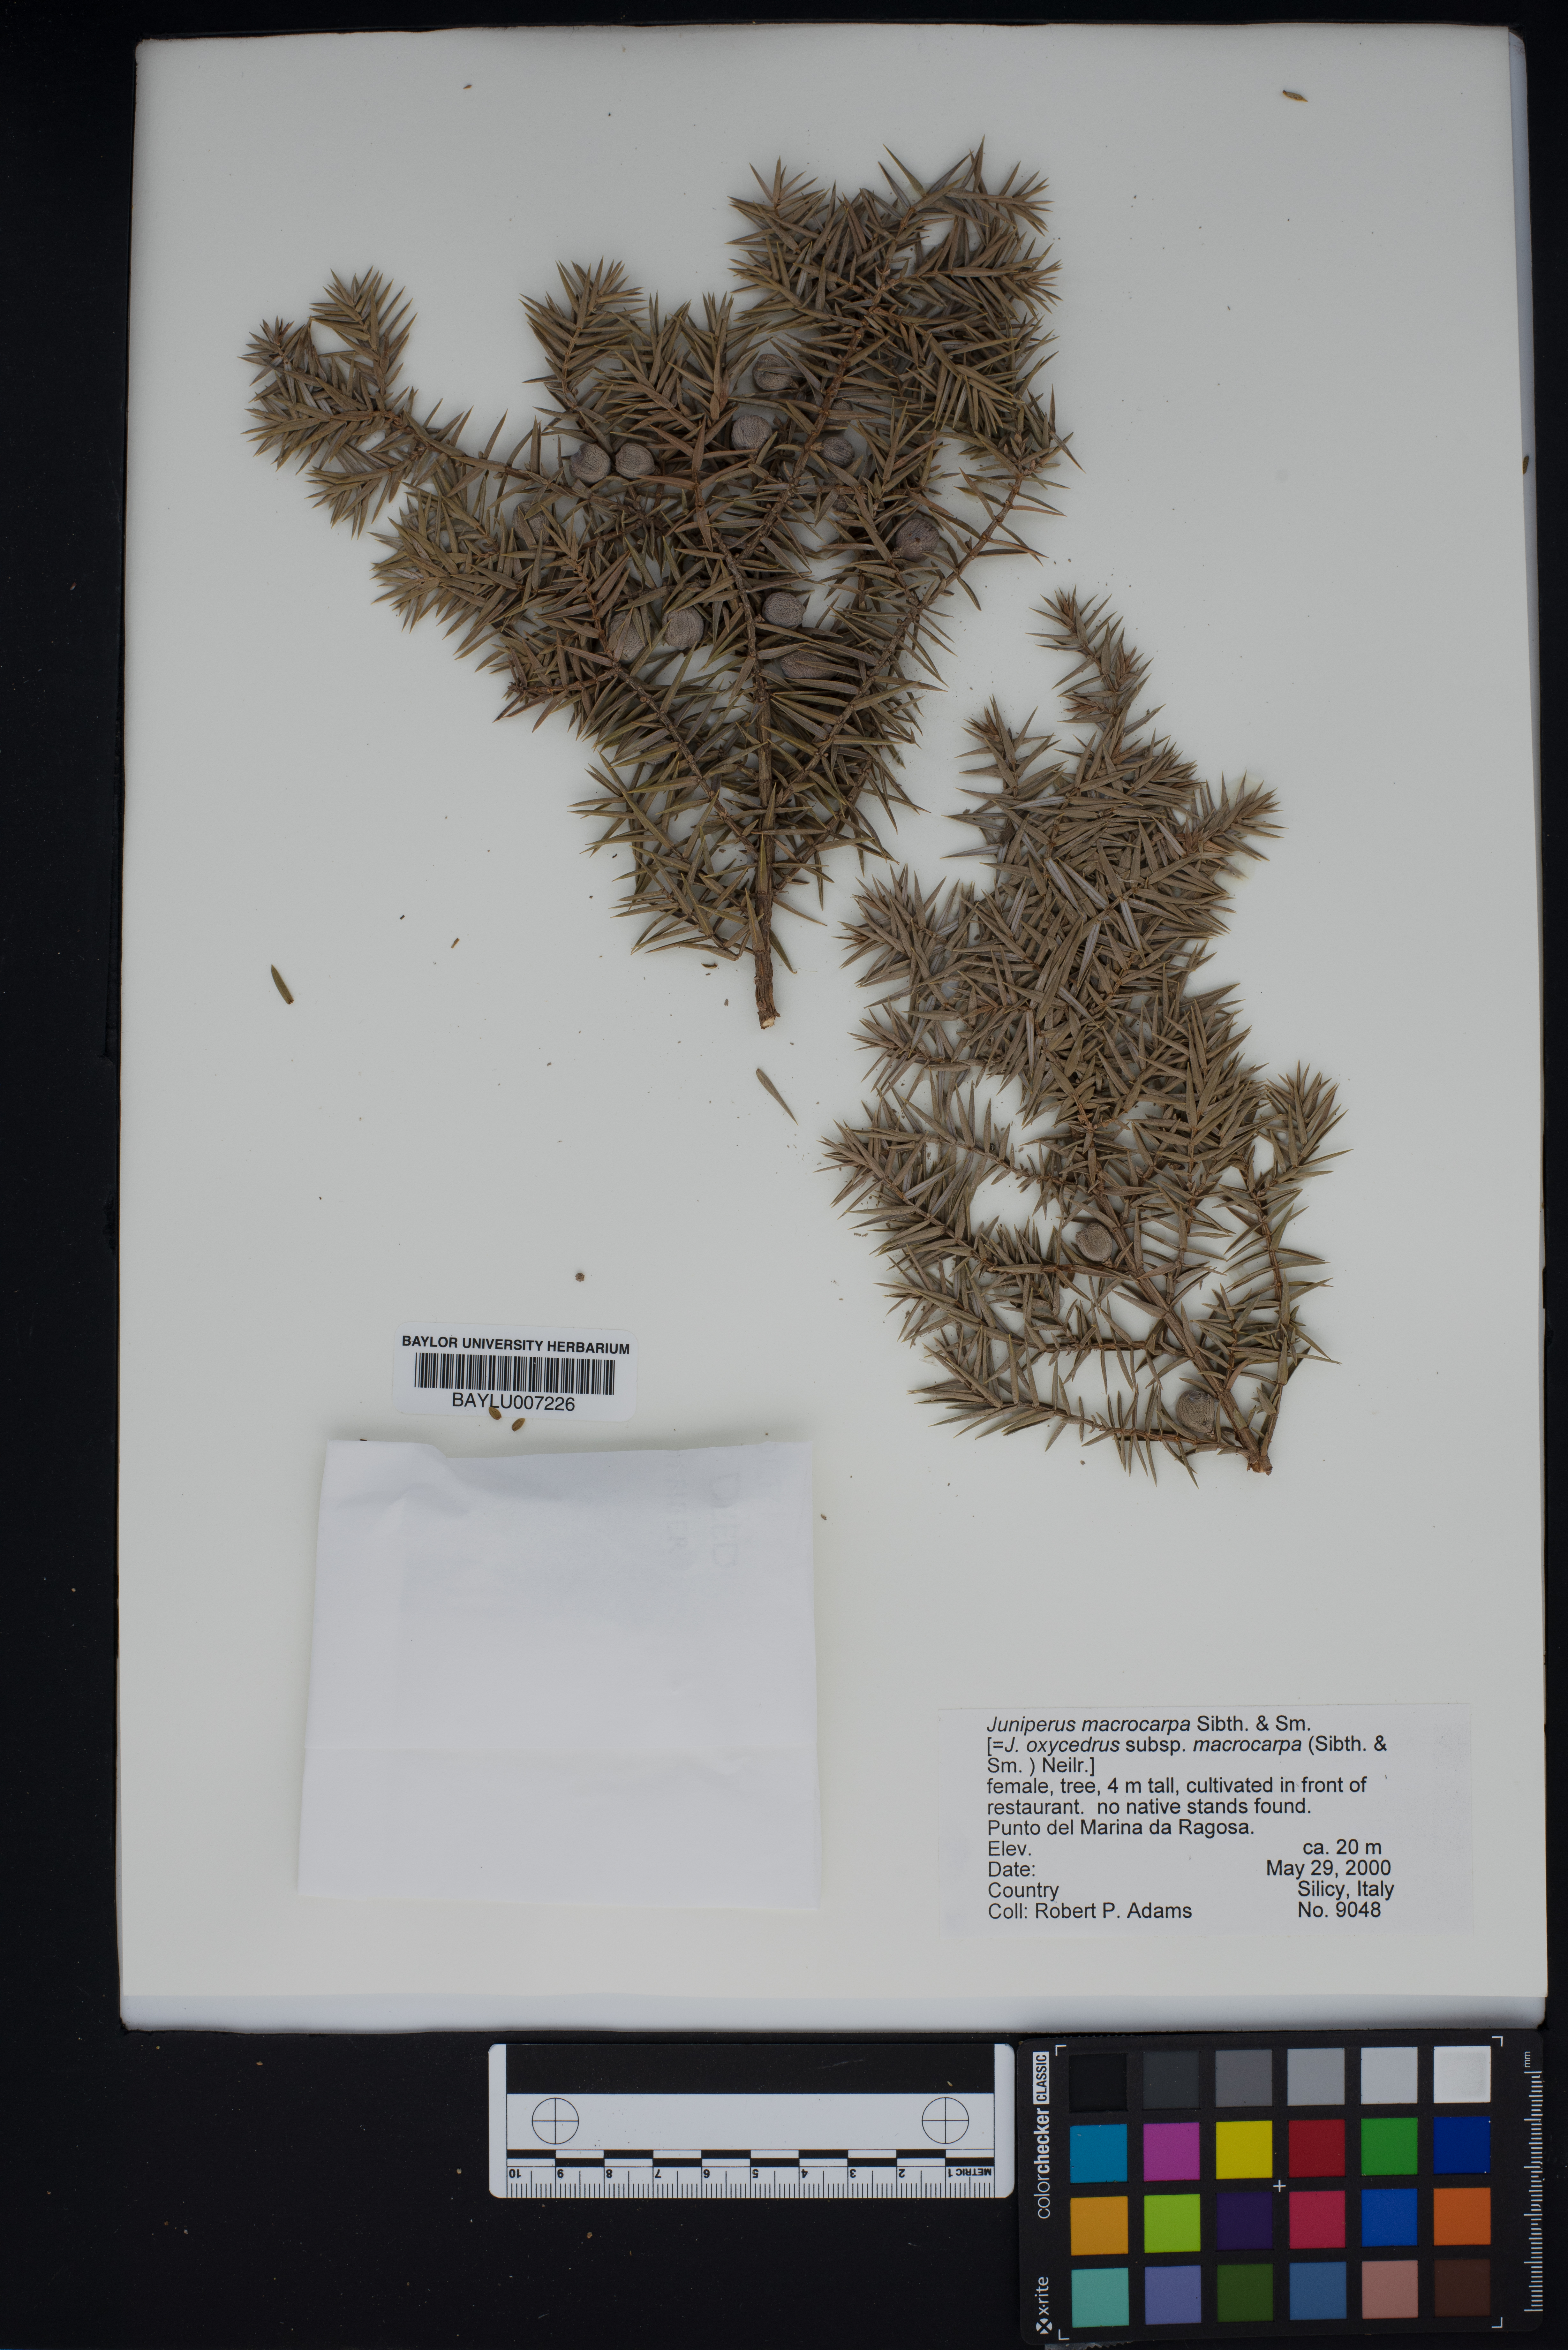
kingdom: Plantae
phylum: Tracheophyta
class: Pinopsida
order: Pinales
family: Cupressaceae
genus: Juniperus
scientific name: Juniperus oxycedrus
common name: Prickly juniper
